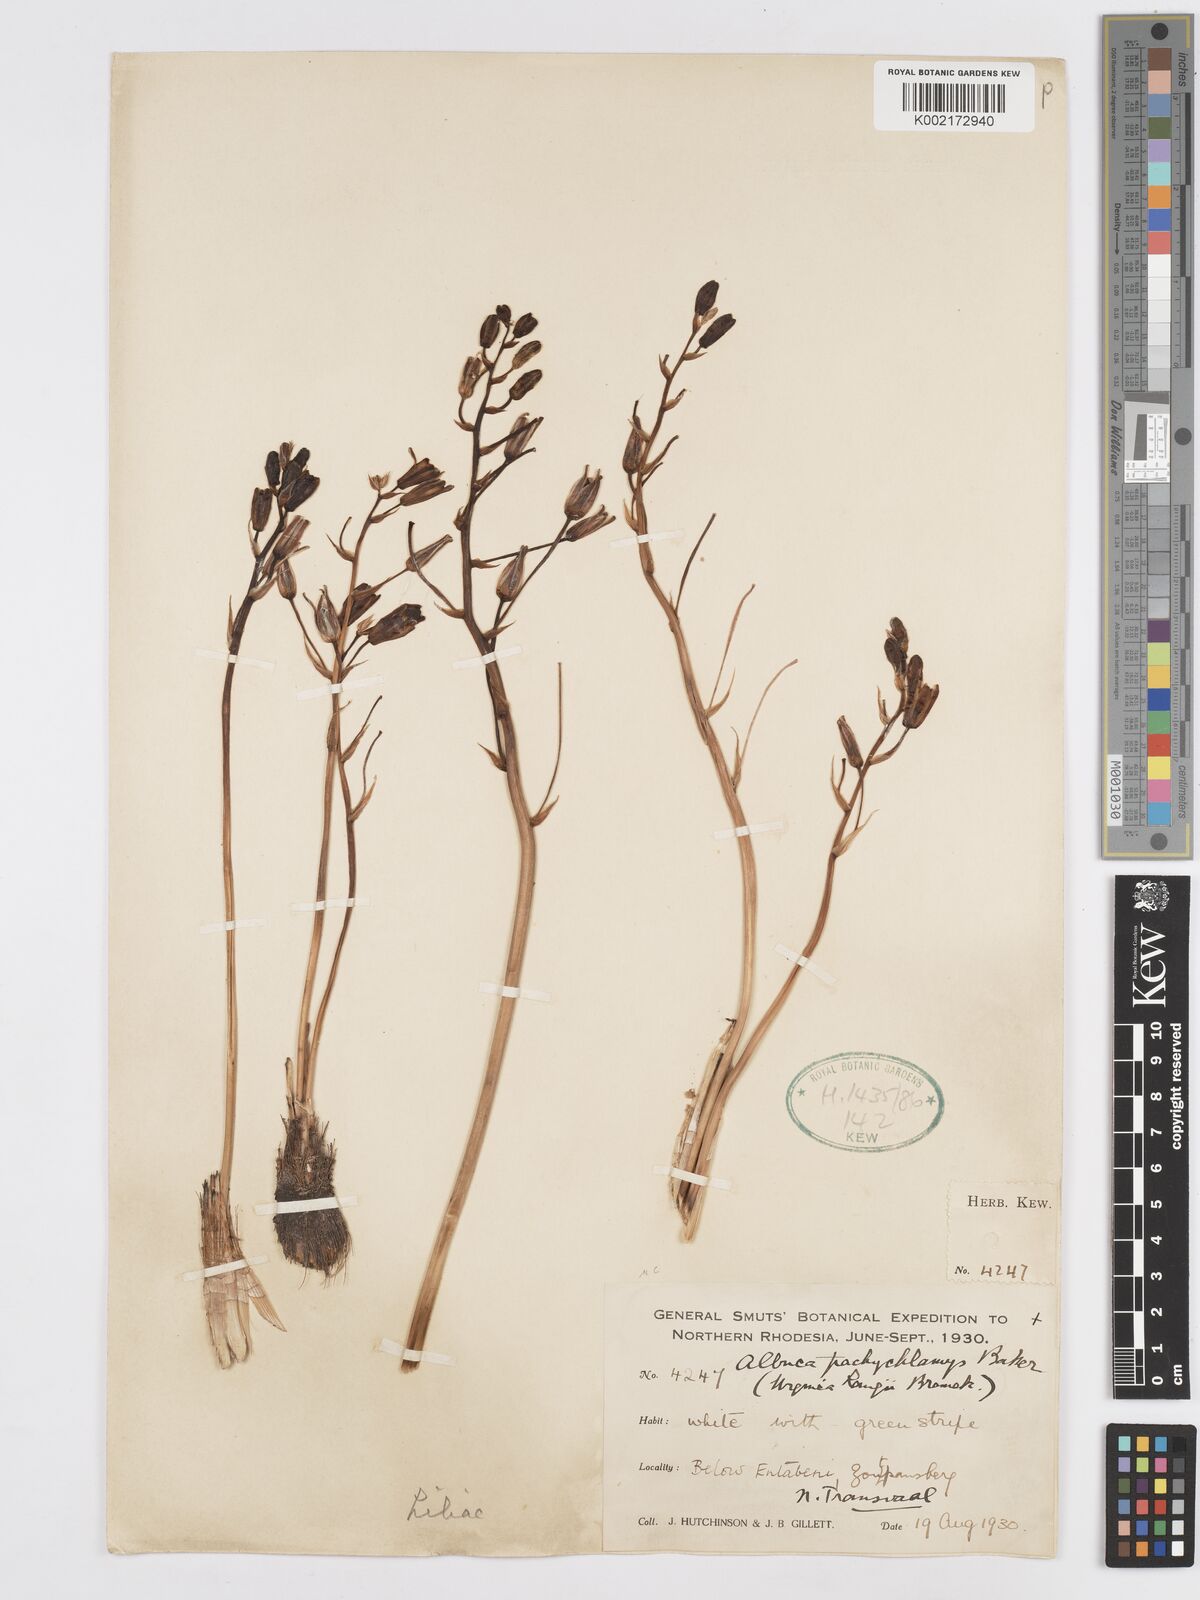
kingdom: Plantae
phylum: Tracheophyta
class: Liliopsida
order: Asparagales
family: Asparagaceae
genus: Albuca
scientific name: Albuca setosa
